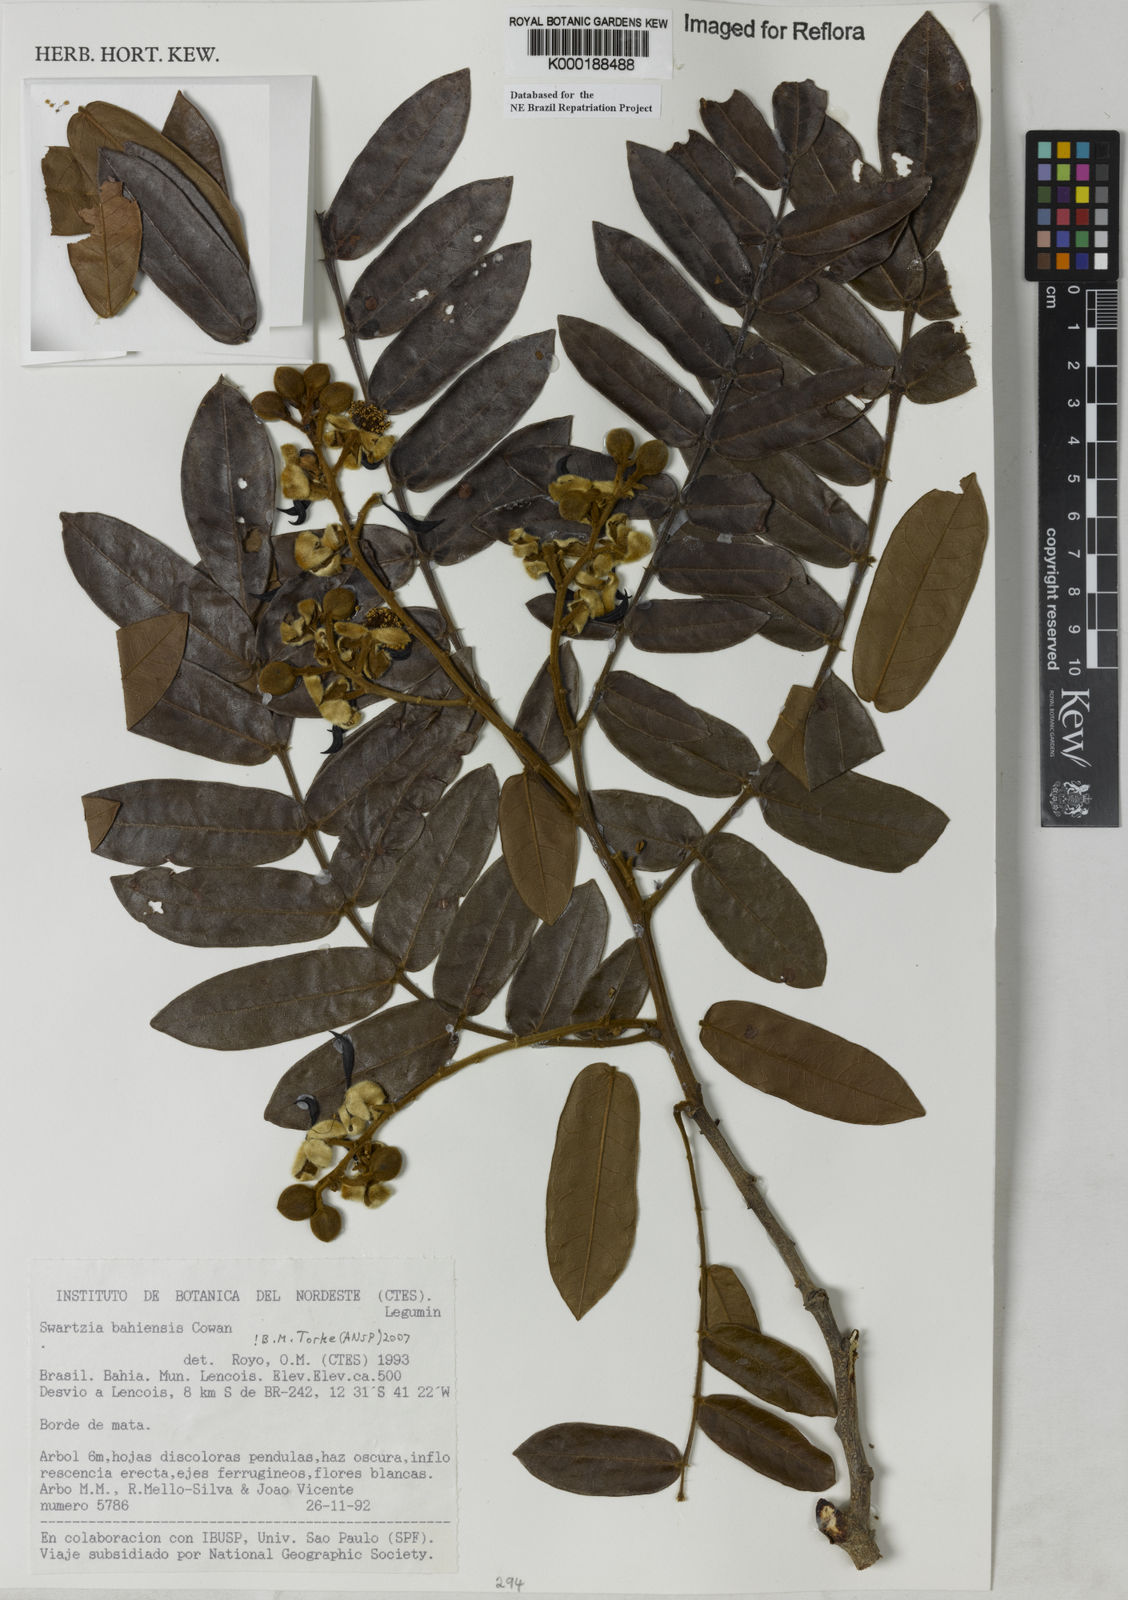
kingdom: Plantae
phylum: Tracheophyta
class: Magnoliopsida
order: Fabales
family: Fabaceae
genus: Swartzia
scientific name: Swartzia bahiensis
